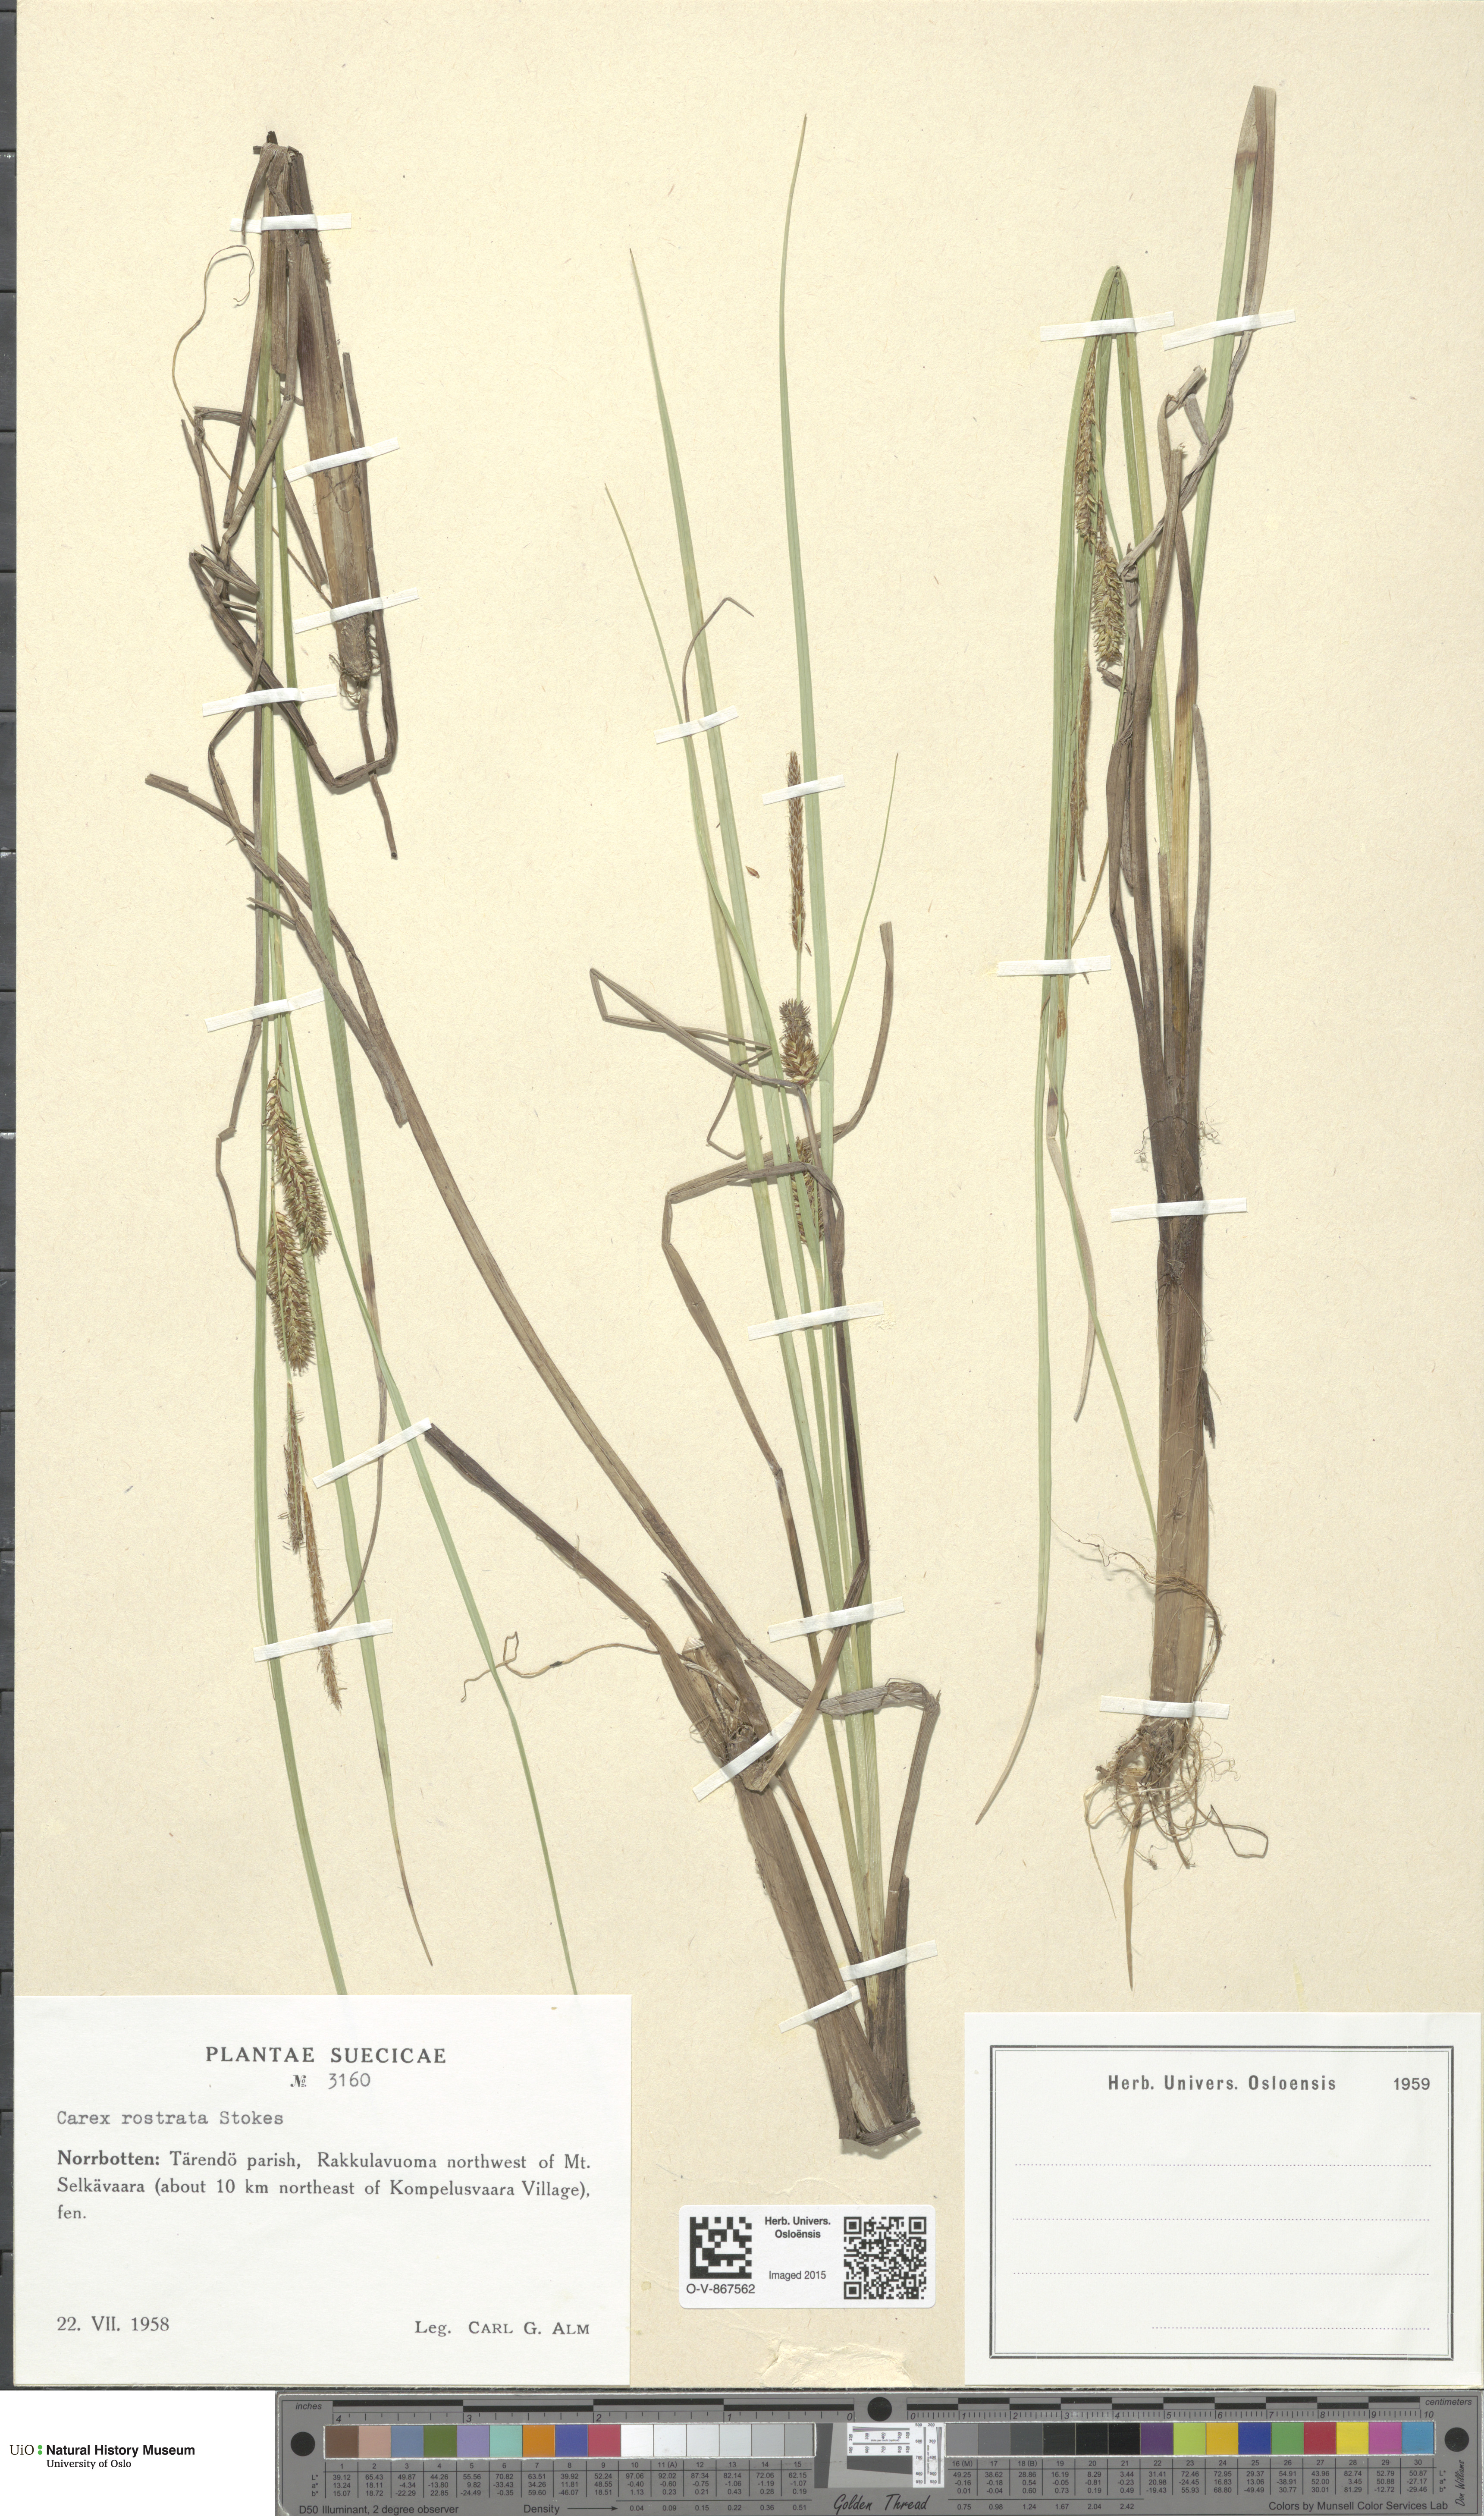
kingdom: Plantae
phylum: Tracheophyta
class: Liliopsida
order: Poales
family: Cyperaceae
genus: Carex
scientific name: Carex rostrata
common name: Bottle sedge
